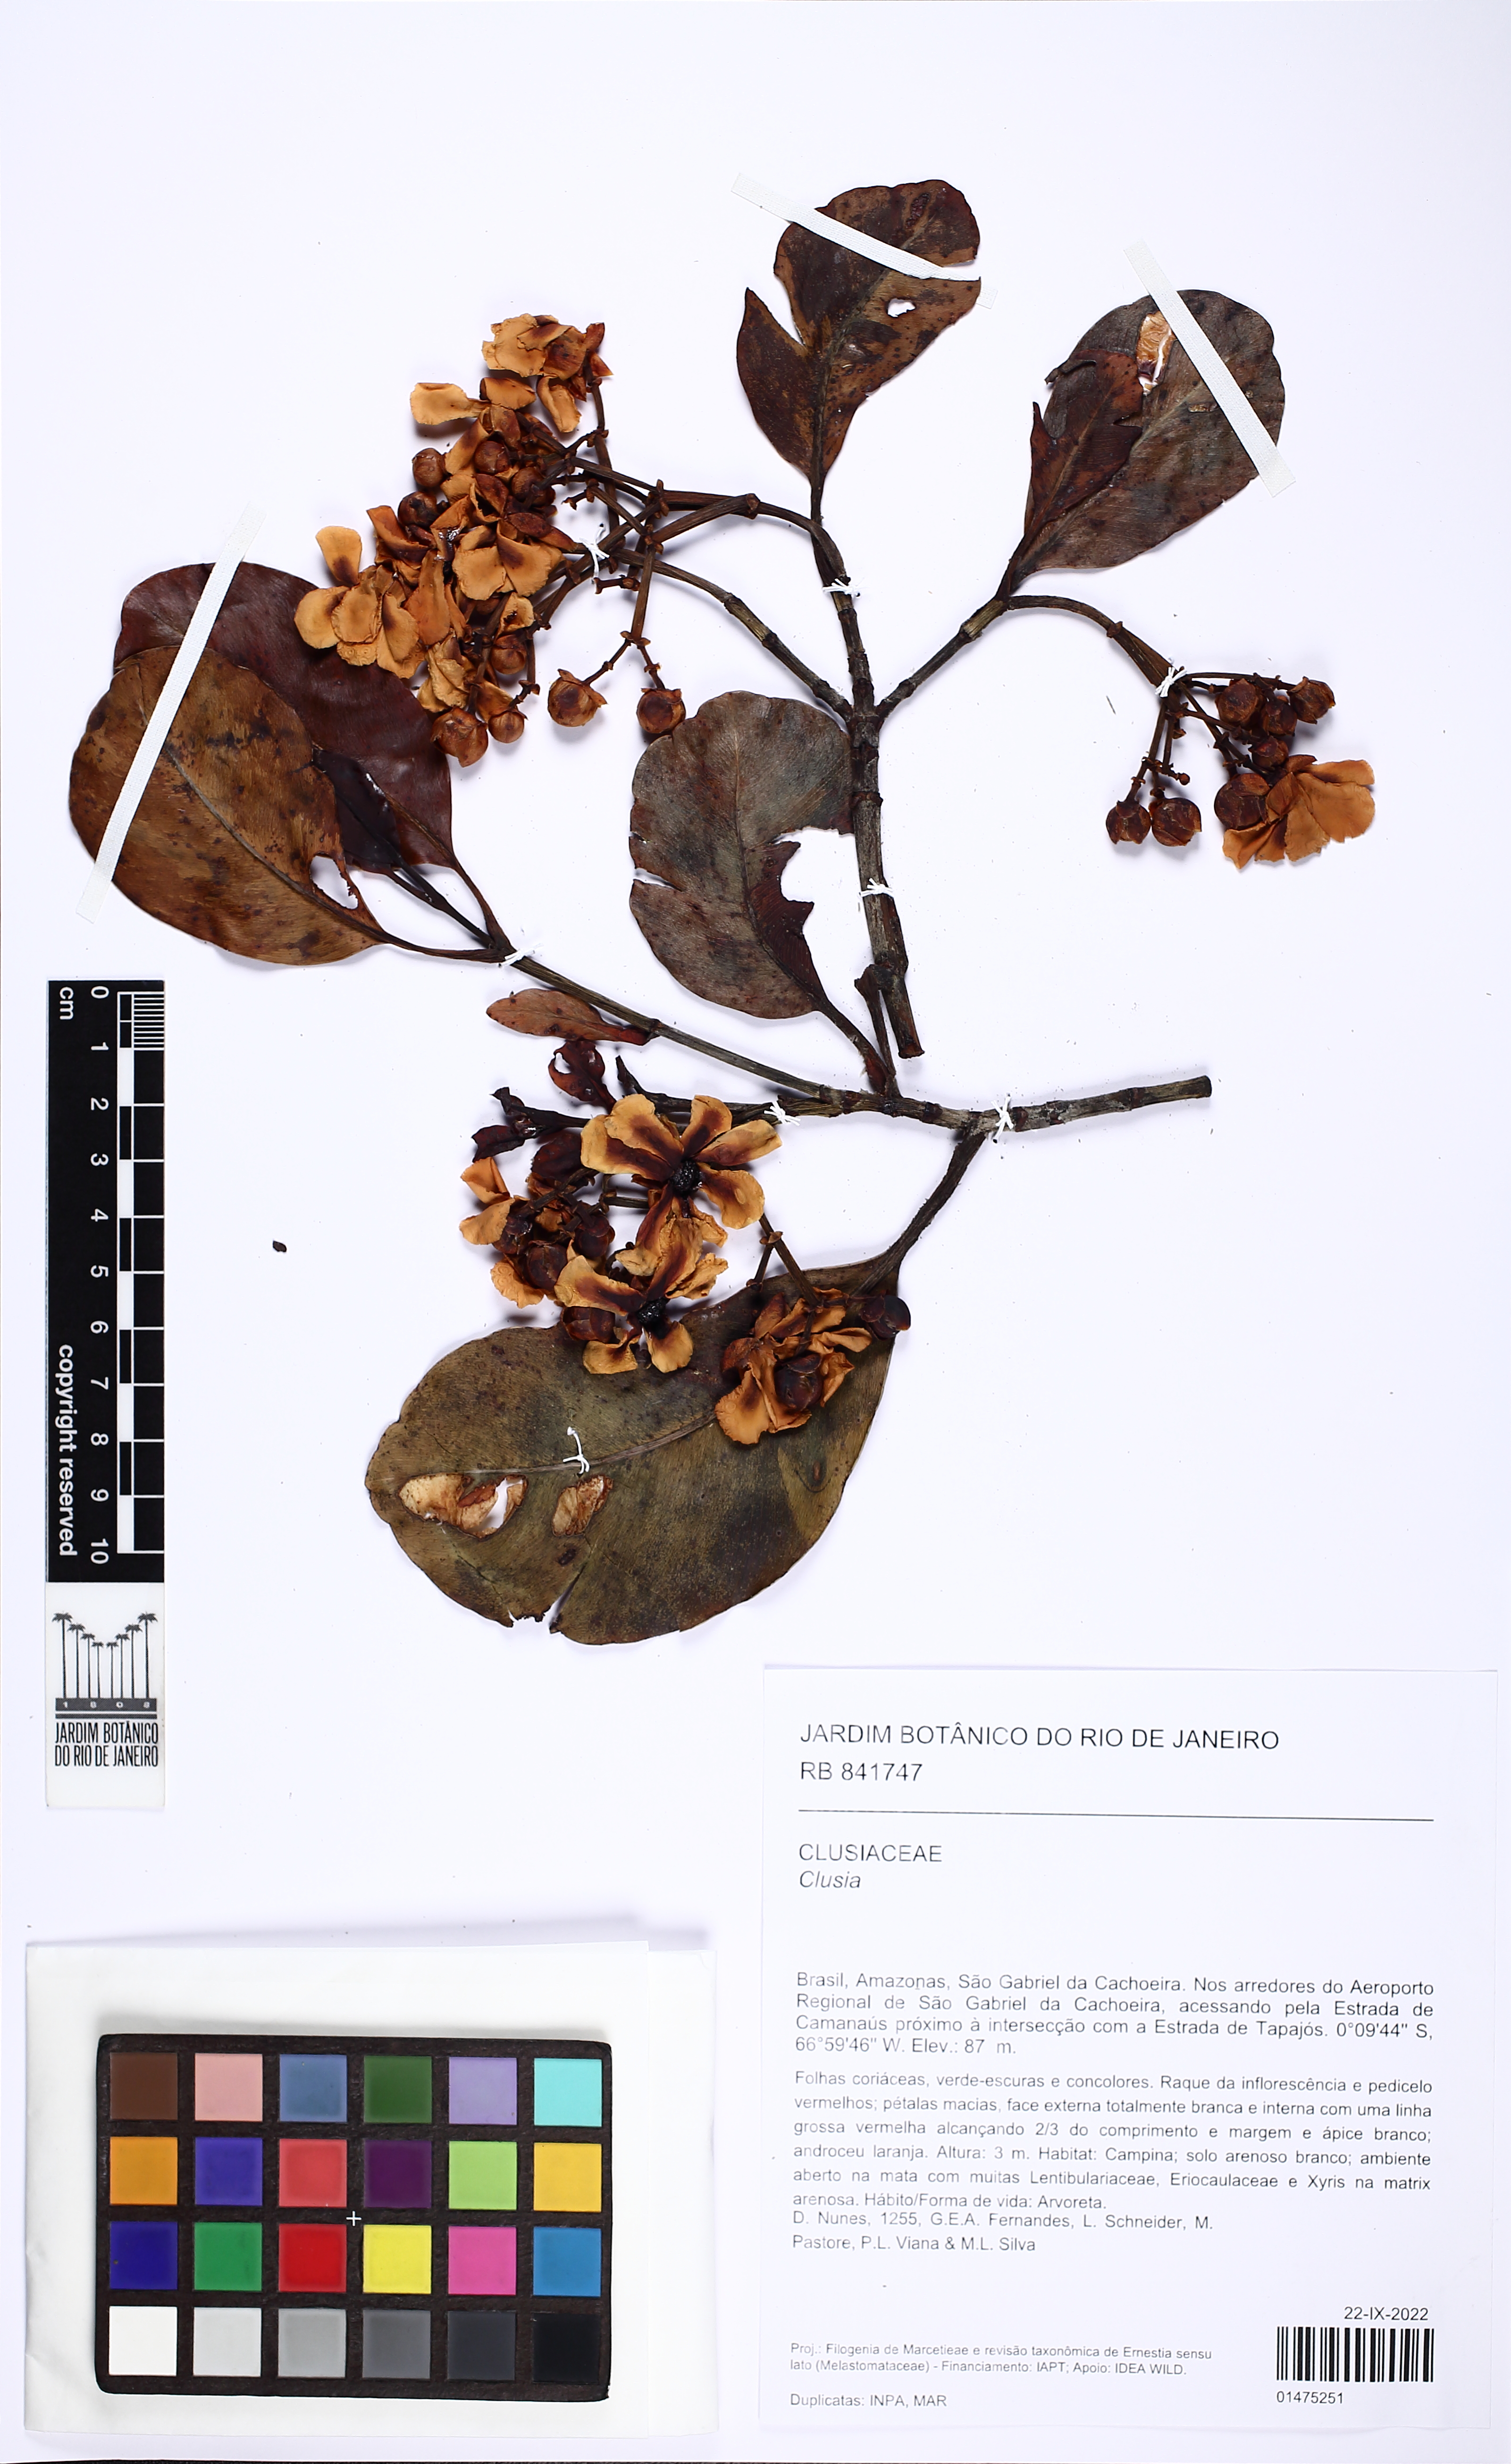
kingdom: Plantae
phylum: Tracheophyta
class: Magnoliopsida
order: Malpighiales
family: Clusiaceae
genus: Clusia
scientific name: Clusia columnaris
